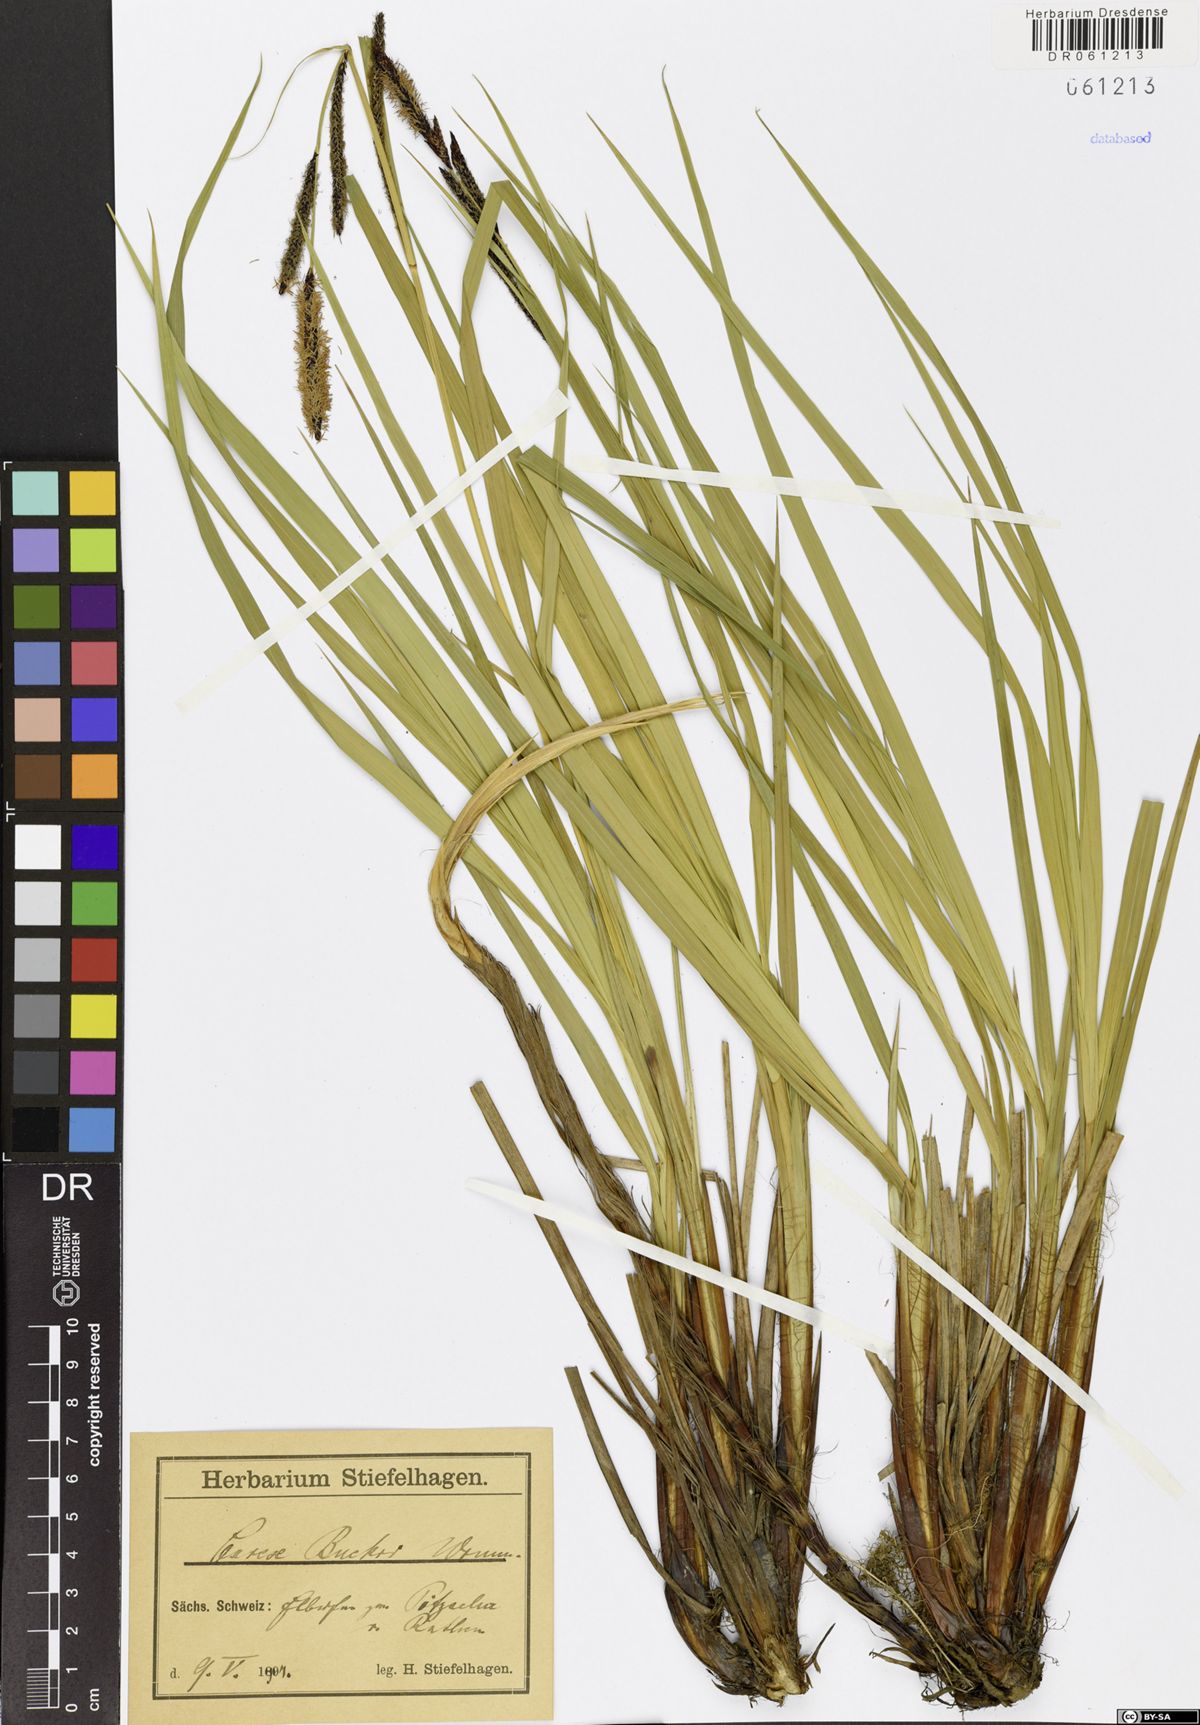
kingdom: Plantae
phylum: Tracheophyta
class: Liliopsida
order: Poales
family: Cyperaceae
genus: Carex
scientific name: Carex buekii
